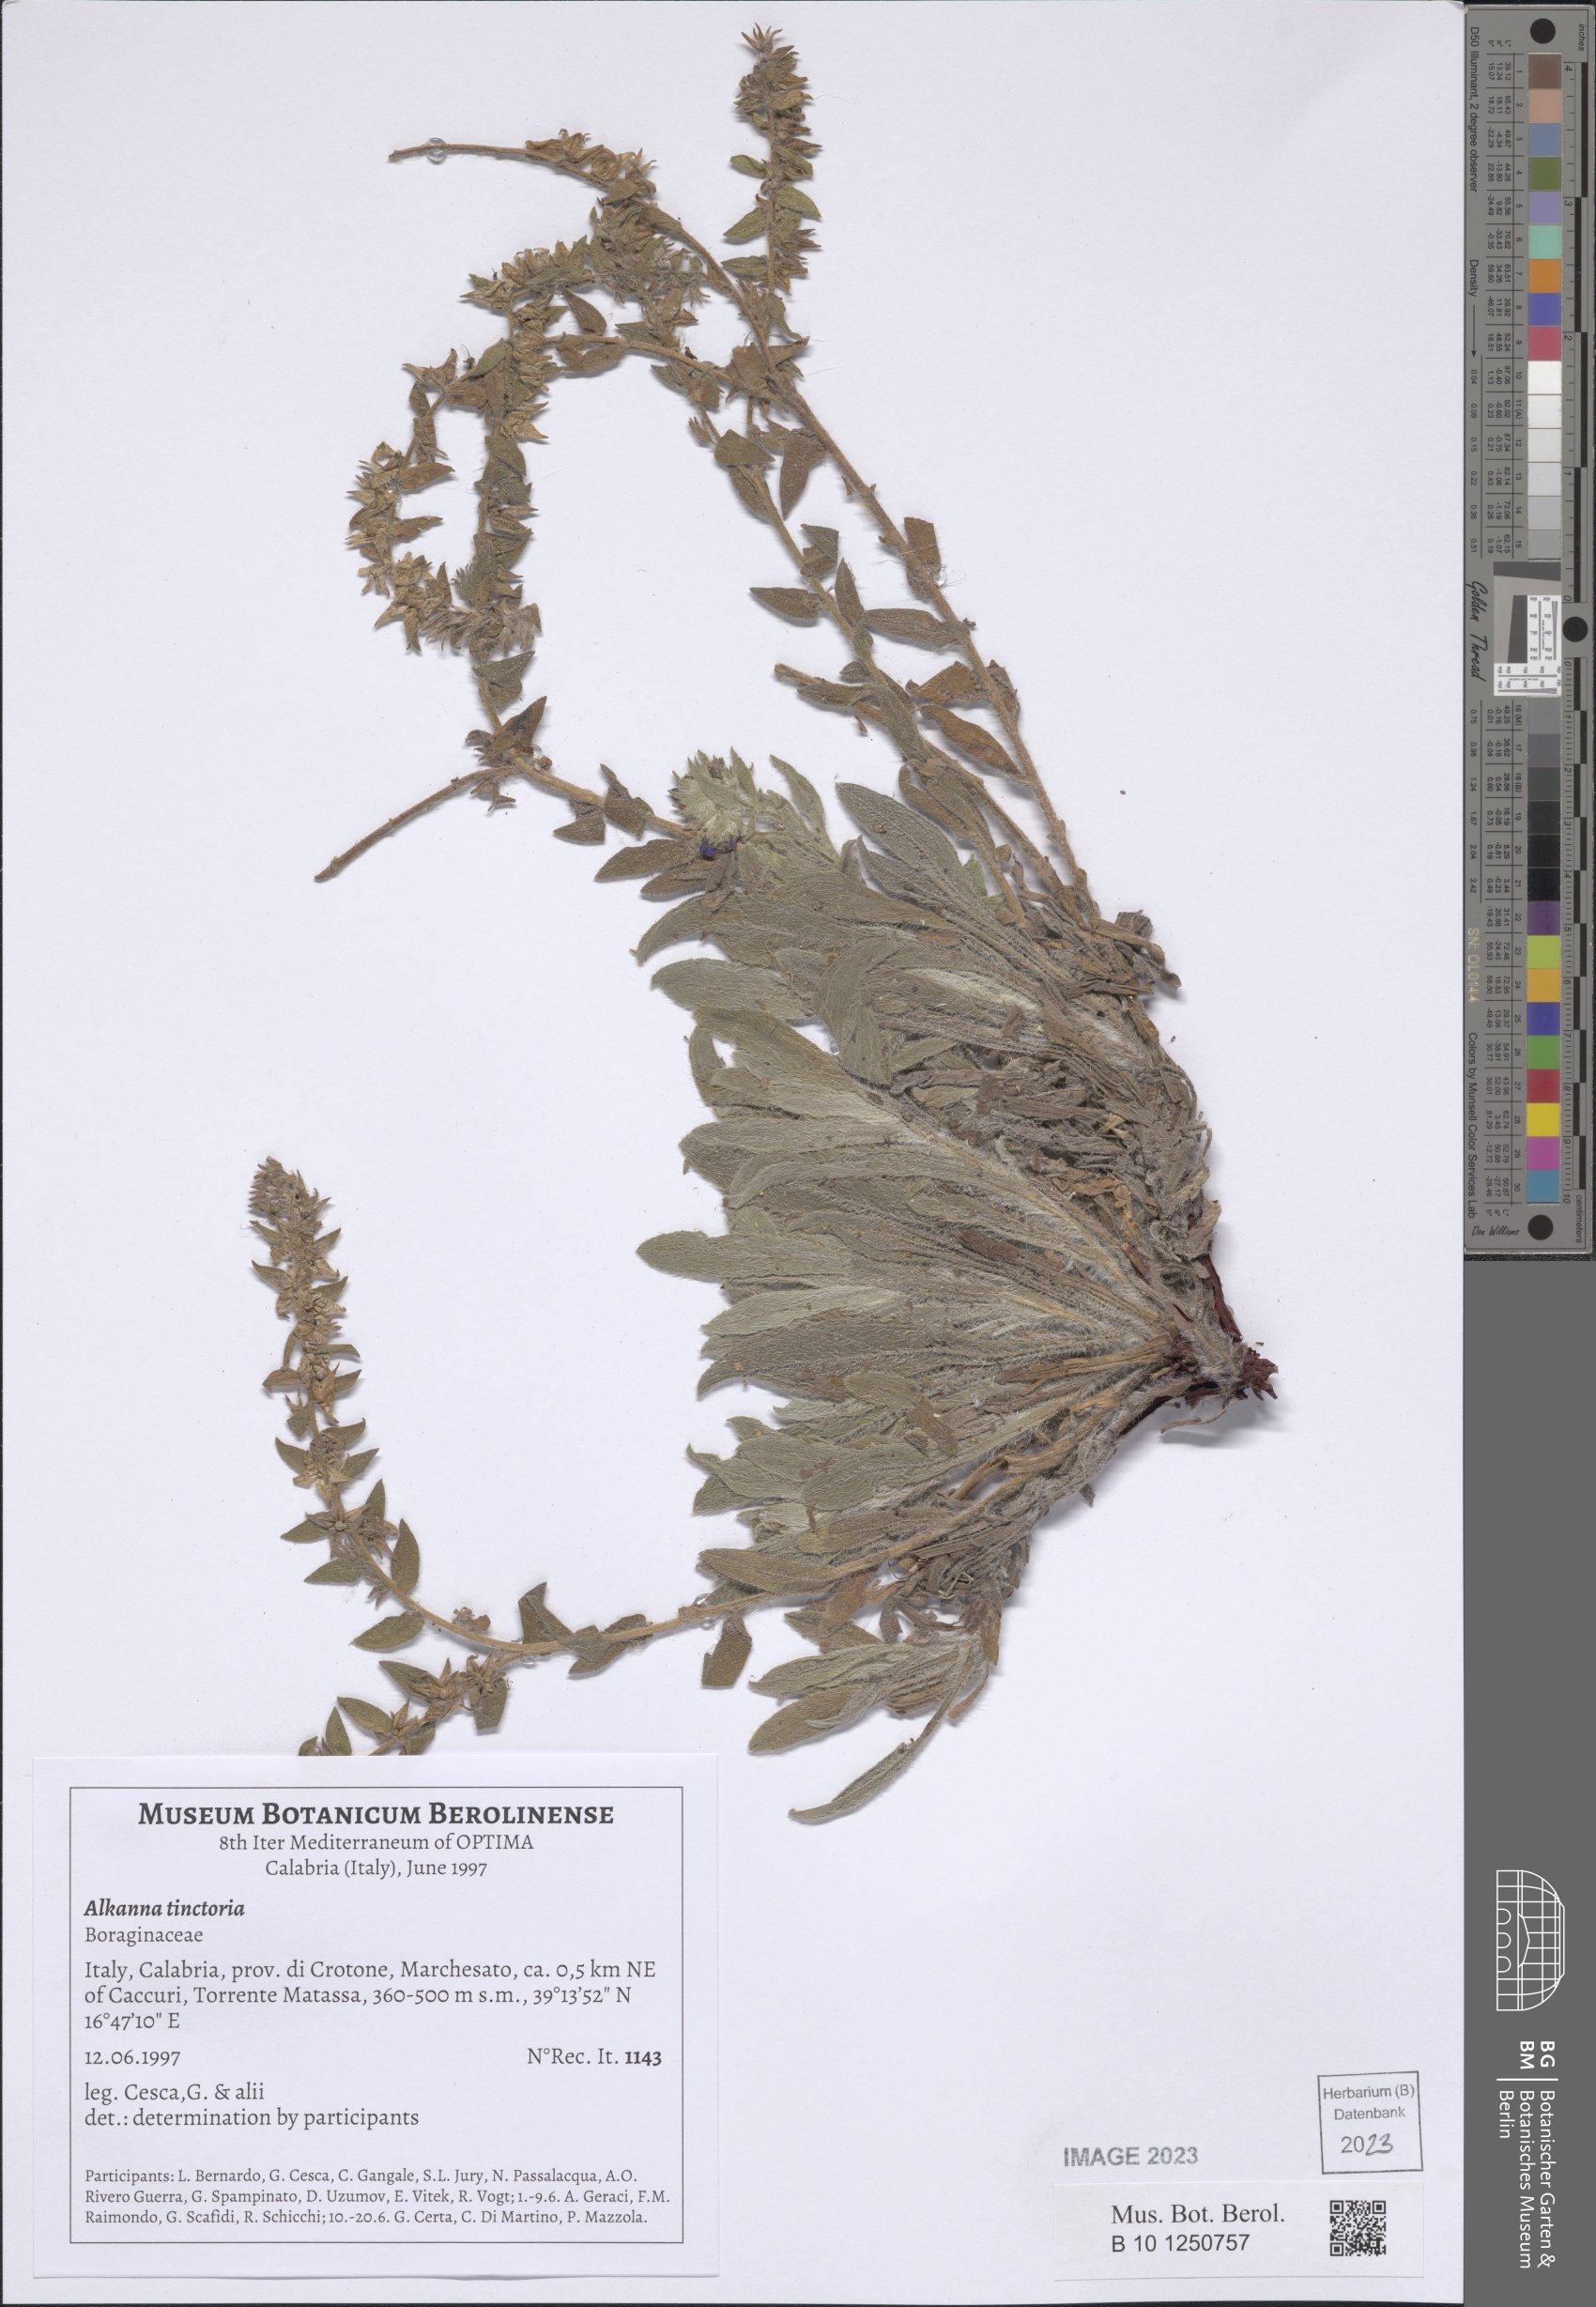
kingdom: Plantae
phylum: Tracheophyta
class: Magnoliopsida
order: Boraginales
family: Boraginaceae
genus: Alkanna
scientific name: Alkanna tinctoria
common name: Dyer's-alkanet
